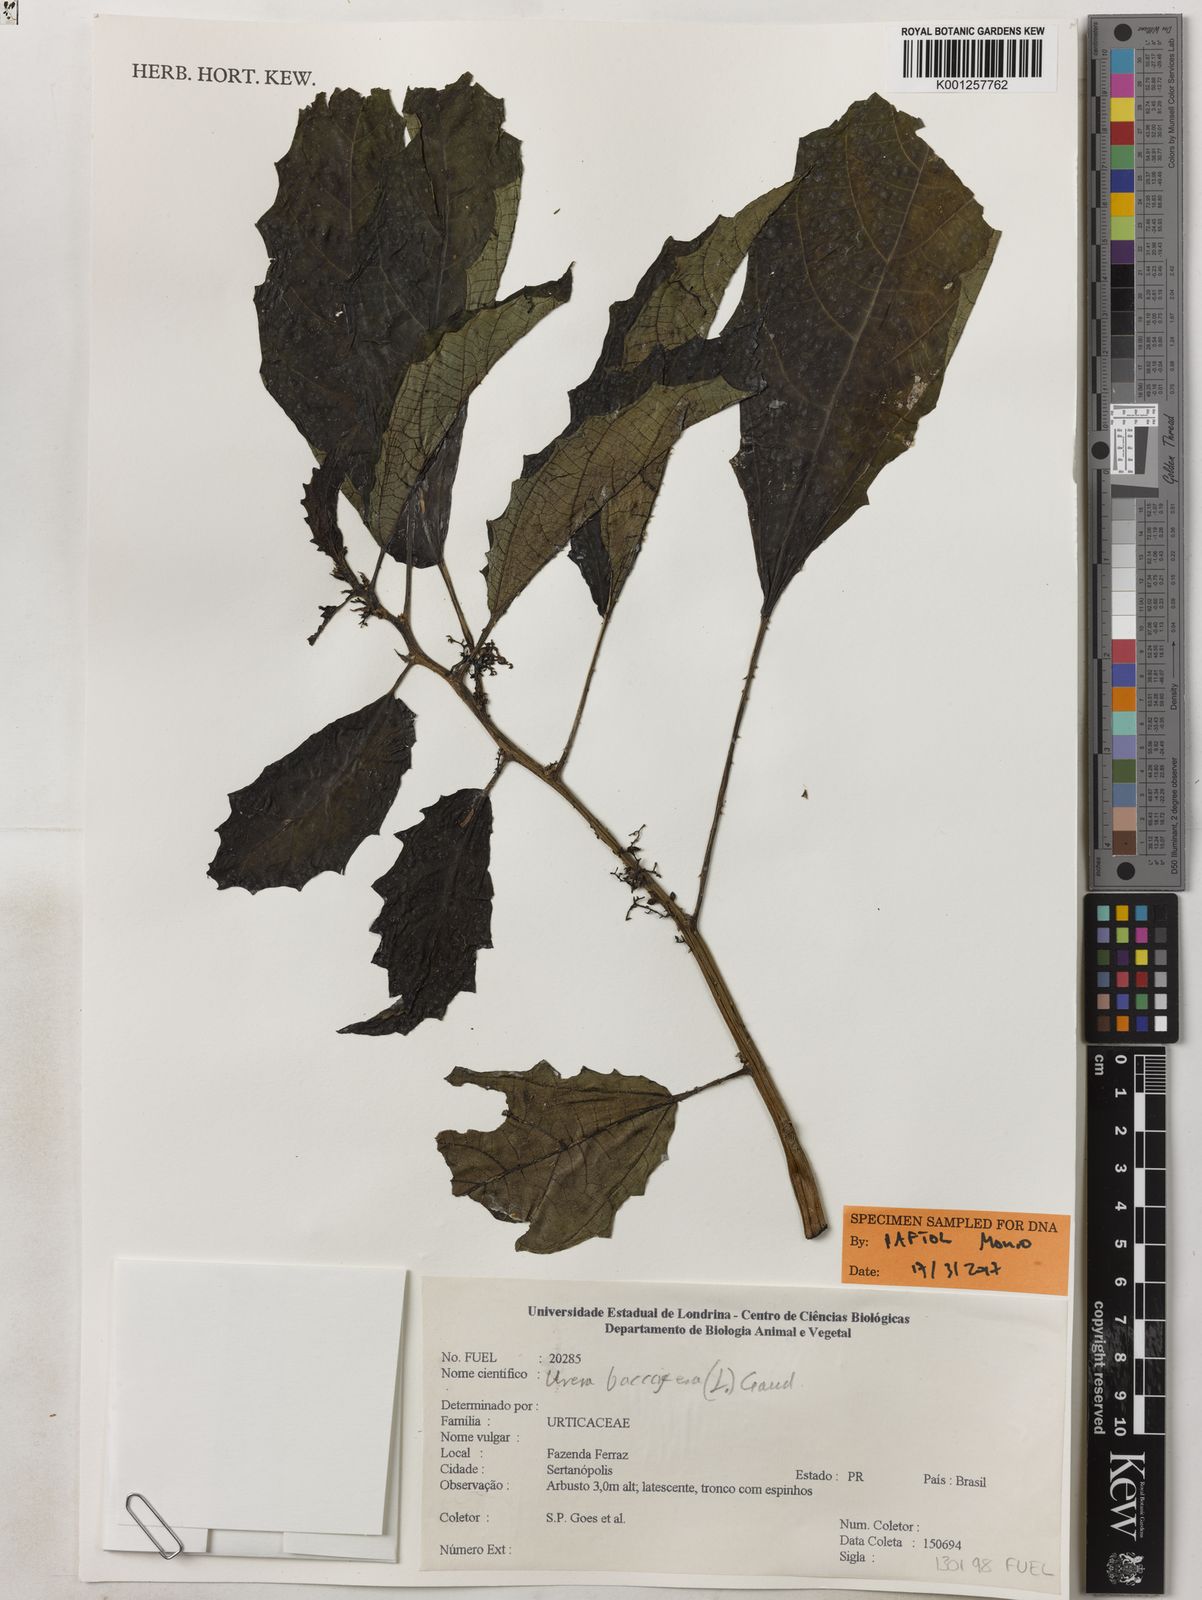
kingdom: Plantae
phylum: Tracheophyta
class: Magnoliopsida
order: Rosales
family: Urticaceae
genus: Urera
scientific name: Urera baccifera
